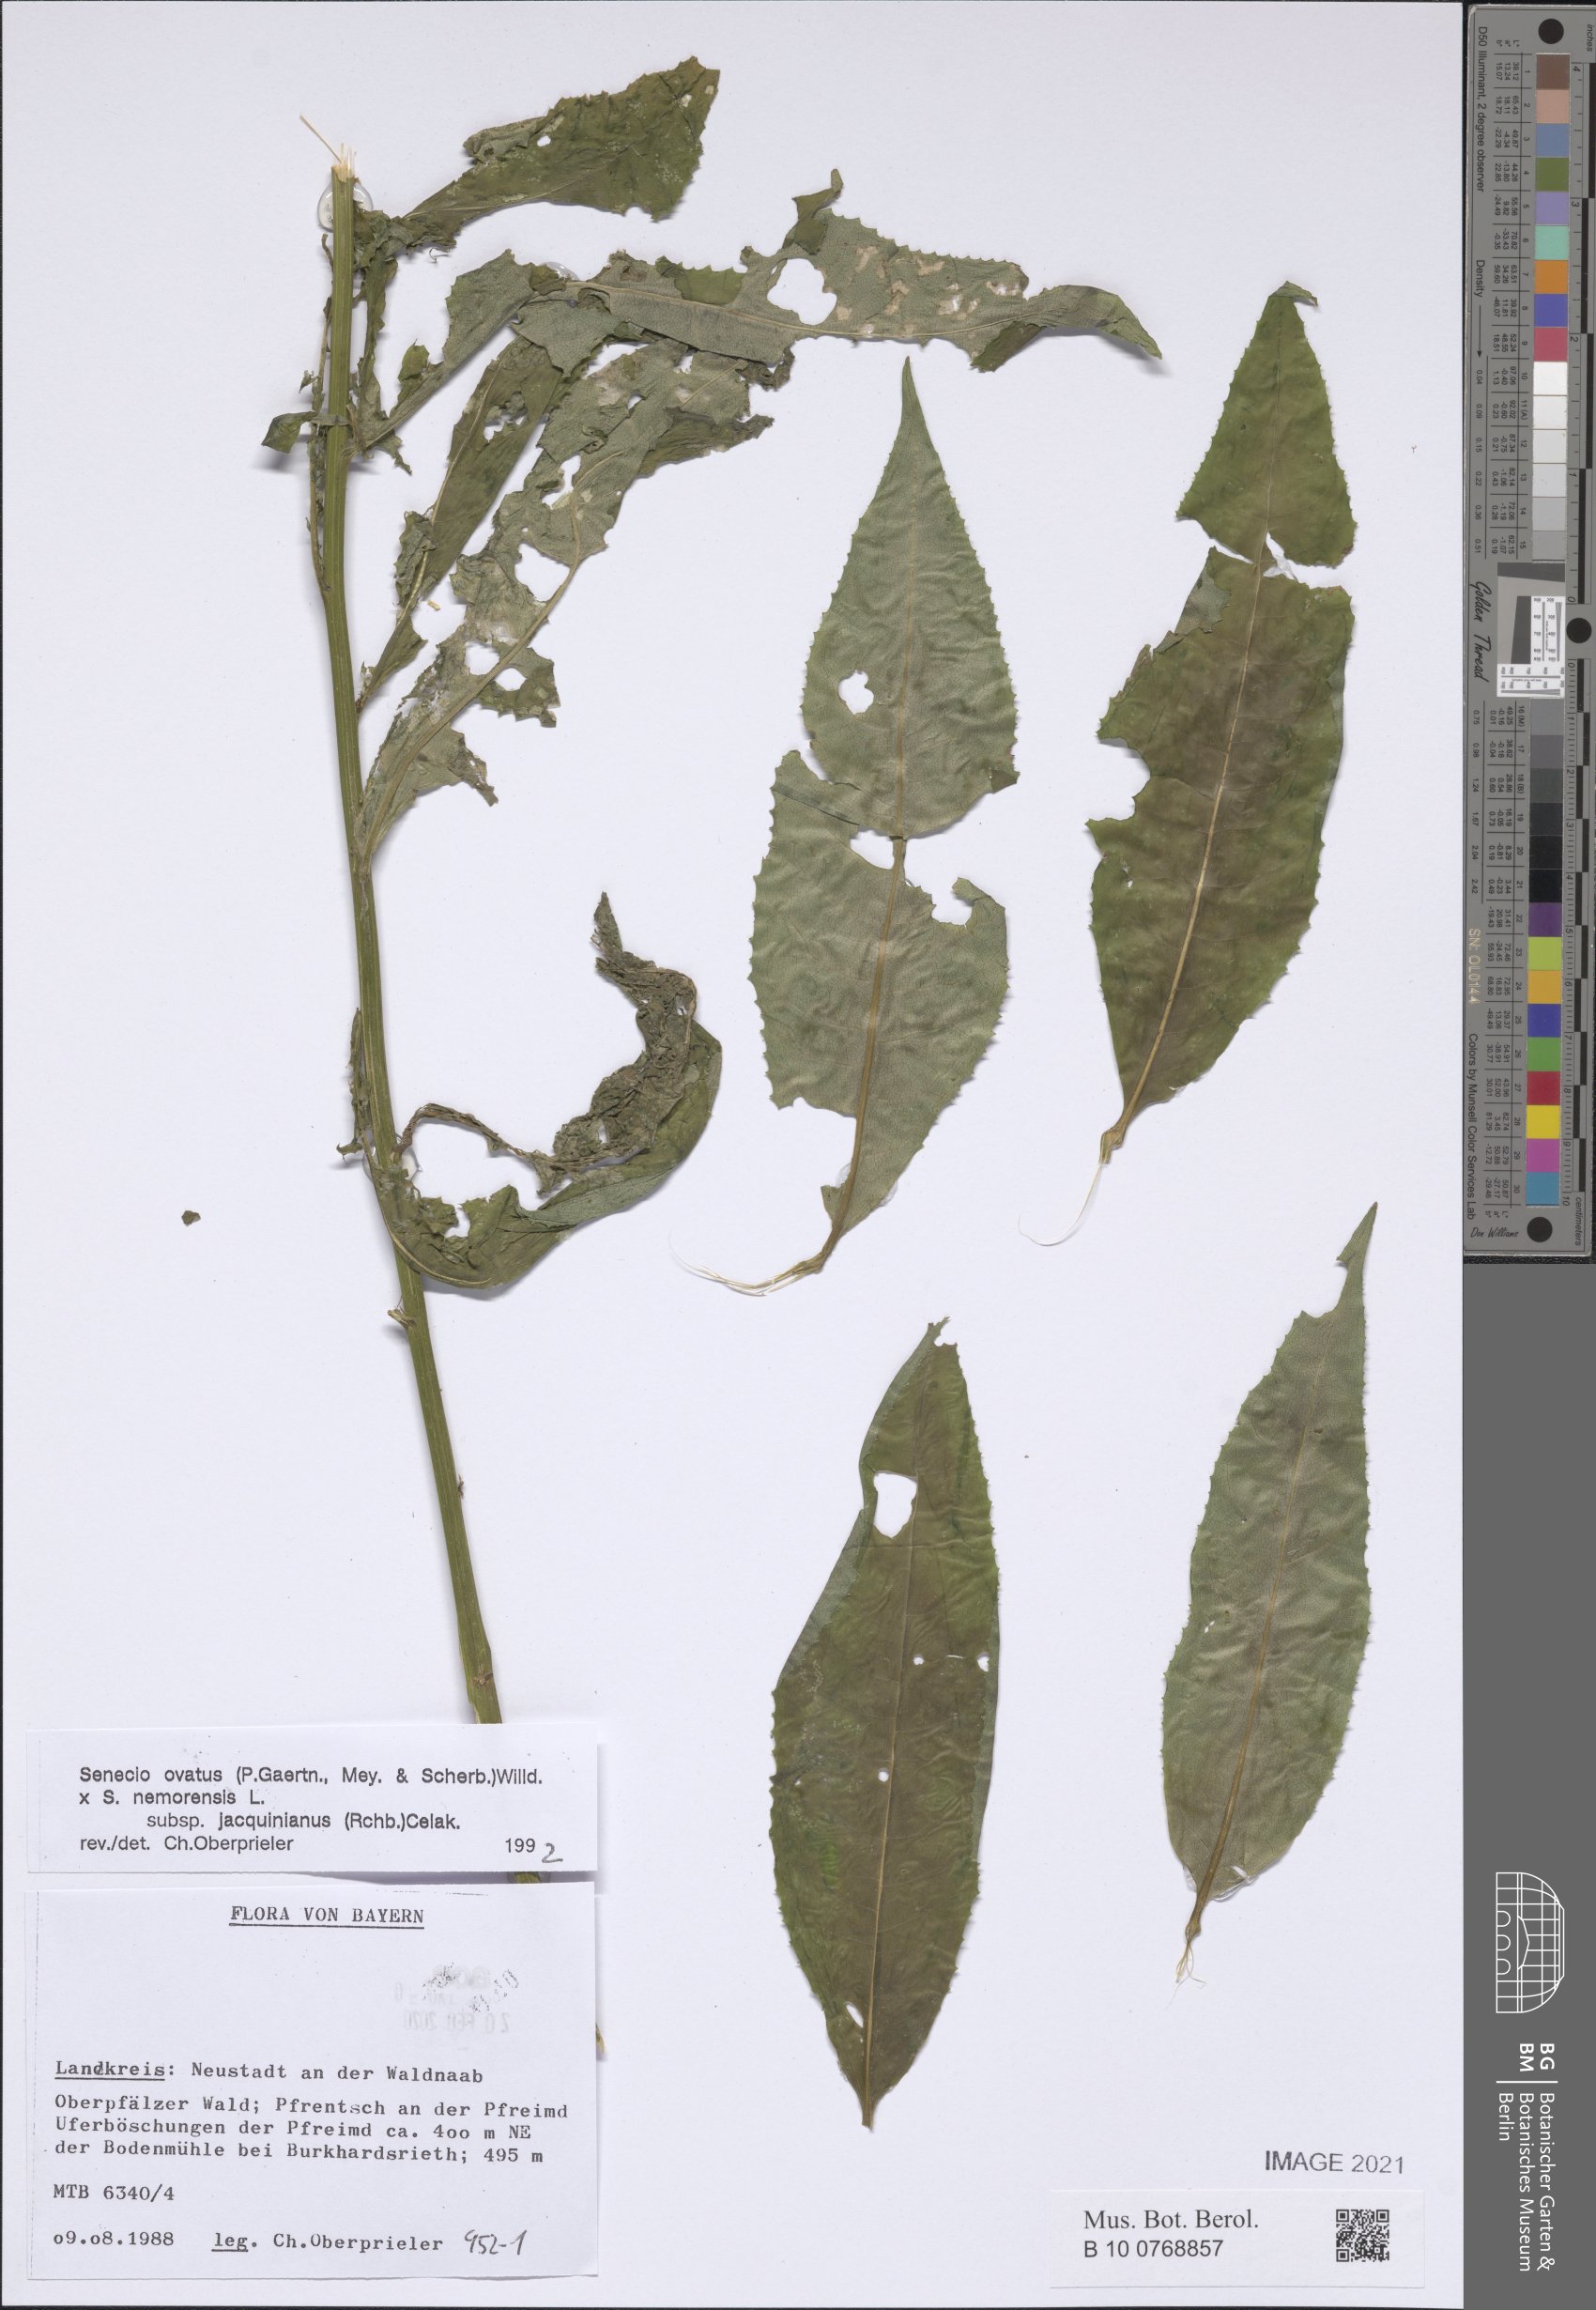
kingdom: Plantae
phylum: Tracheophyta
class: Magnoliopsida
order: Asterales
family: Asteraceae
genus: Senecio
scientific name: Senecio ovatus
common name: Wood ragwort
